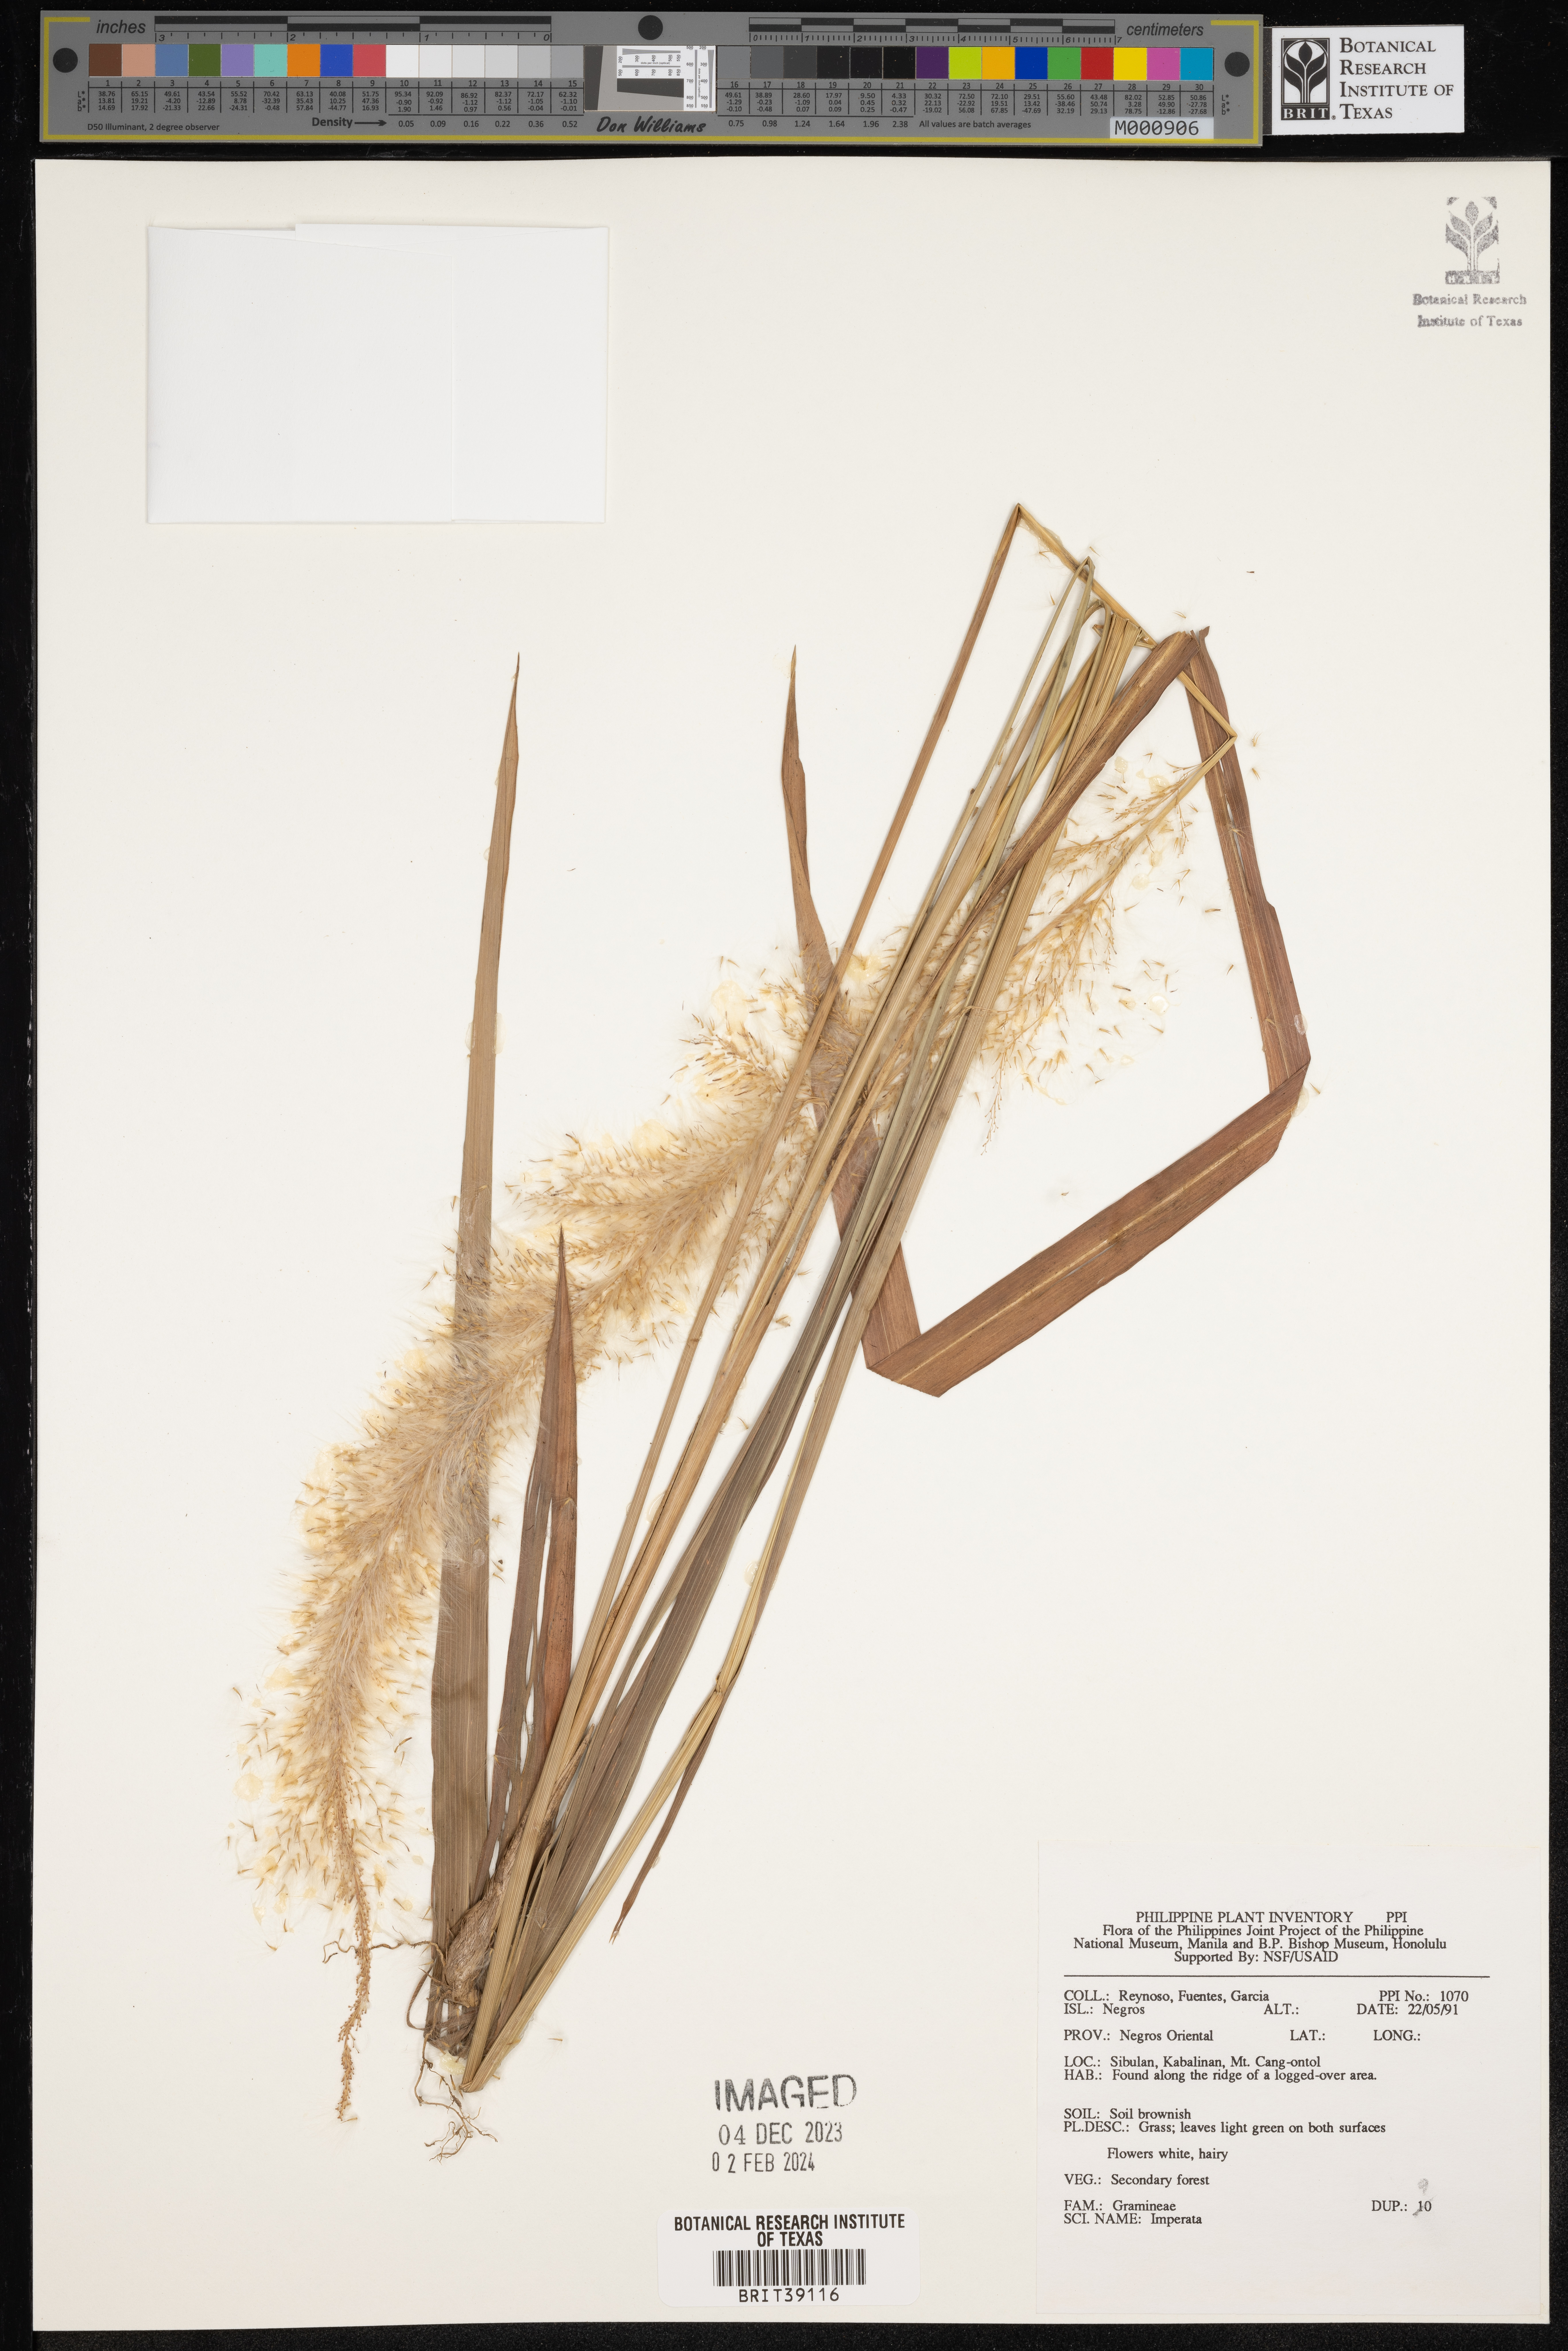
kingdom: Plantae
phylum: Tracheophyta
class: Liliopsida
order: Poales
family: Poaceae
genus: Imperata
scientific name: Imperata
